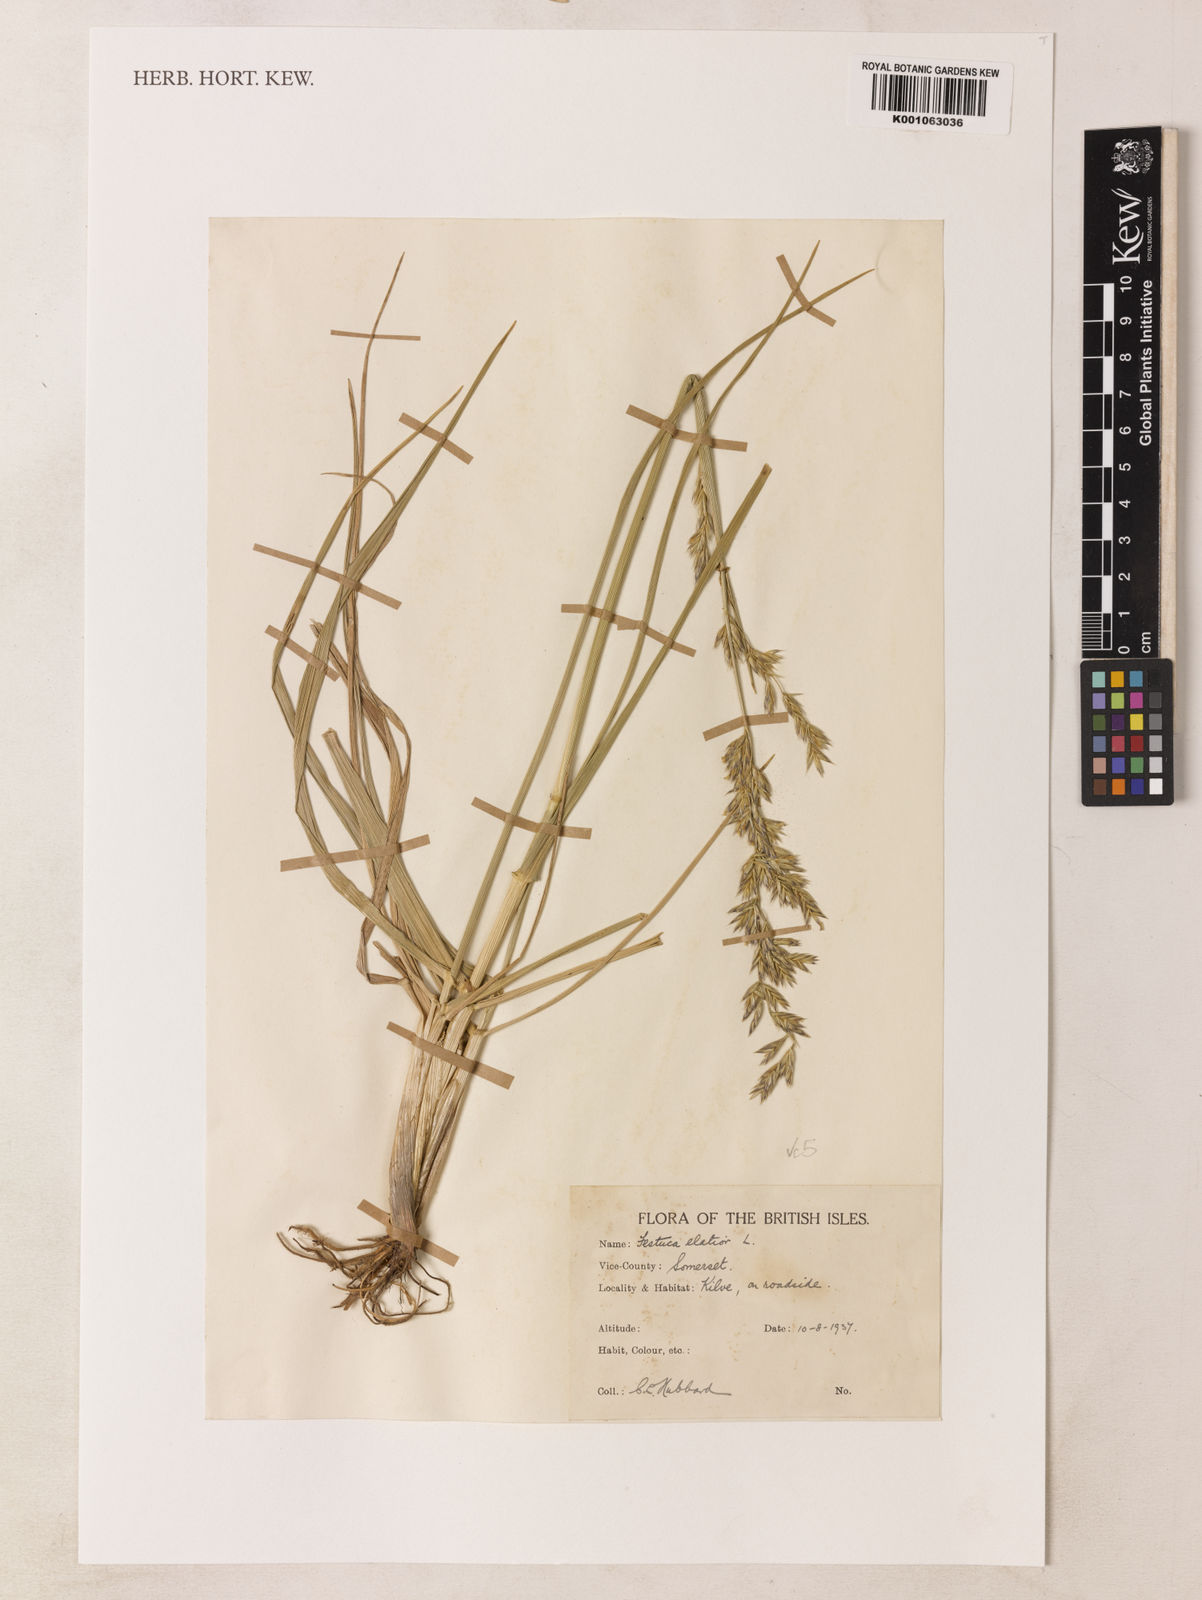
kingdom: Plantae
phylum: Tracheophyta
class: Magnoliopsida
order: Myrtales
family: Myrtaceae
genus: Syzygium
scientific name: Syzygium incarnatum
